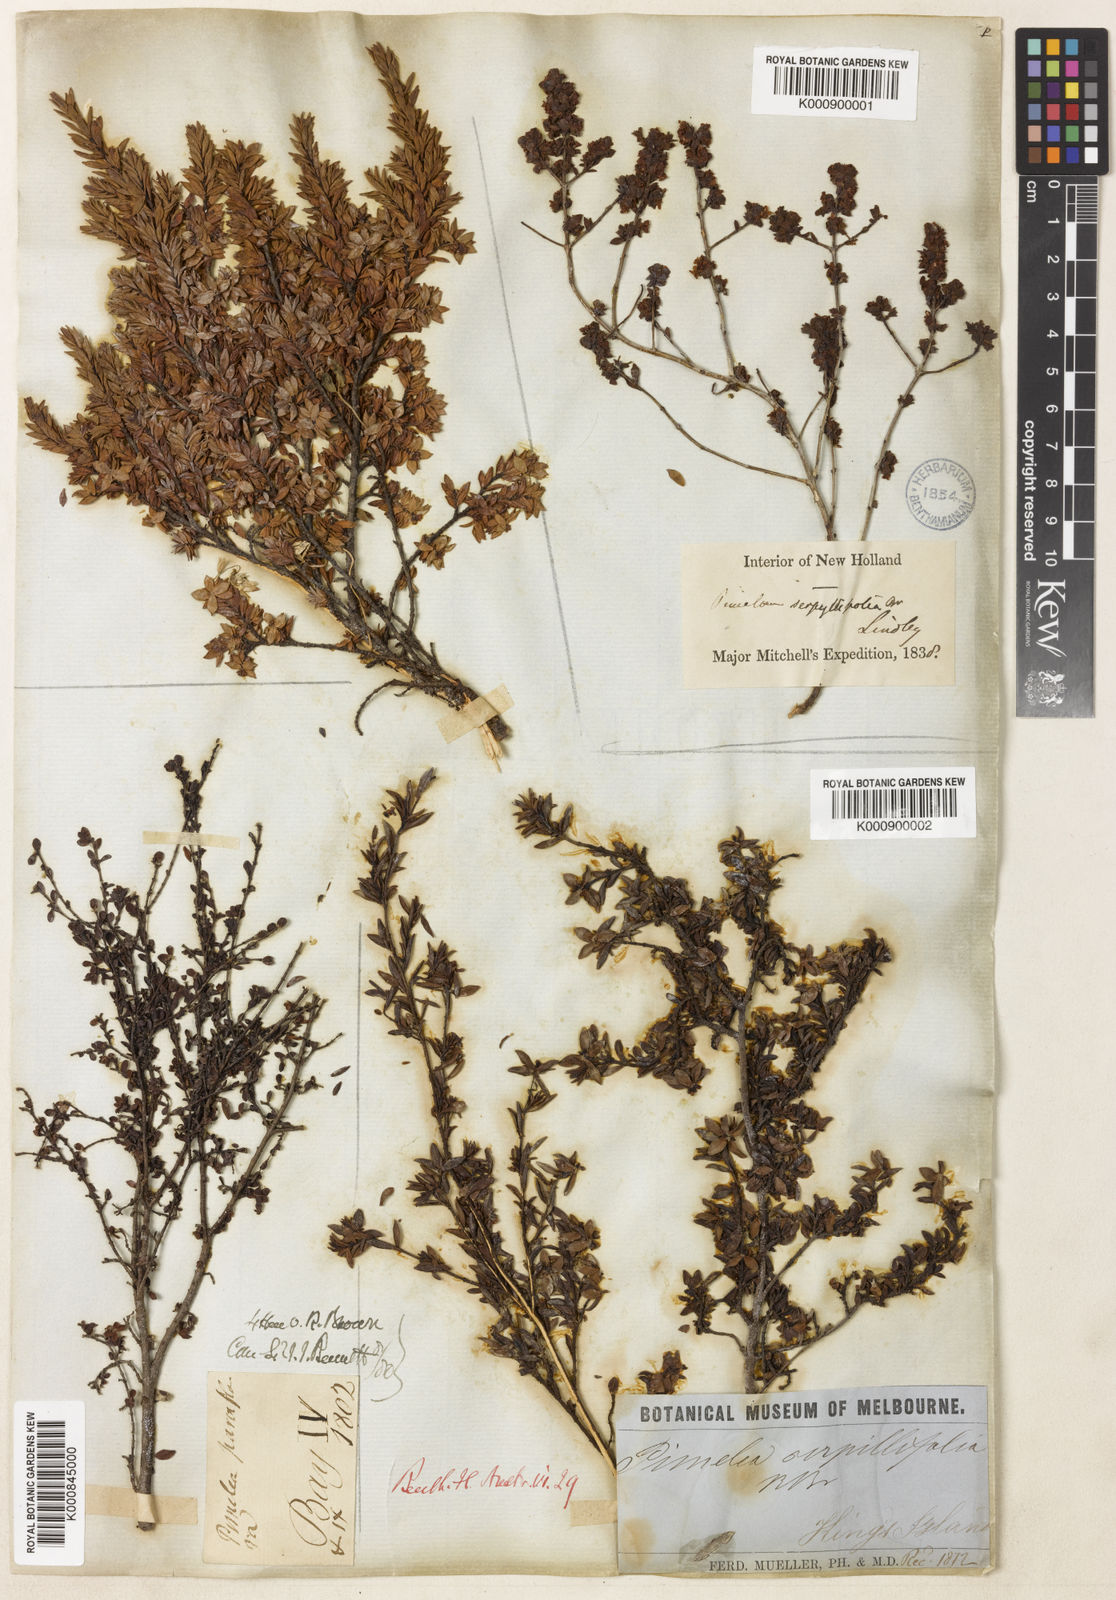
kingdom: Plantae
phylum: Tracheophyta
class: Magnoliopsida
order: Malvales
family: Thymelaeaceae
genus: Pimelea
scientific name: Pimelea serpyllifolia
